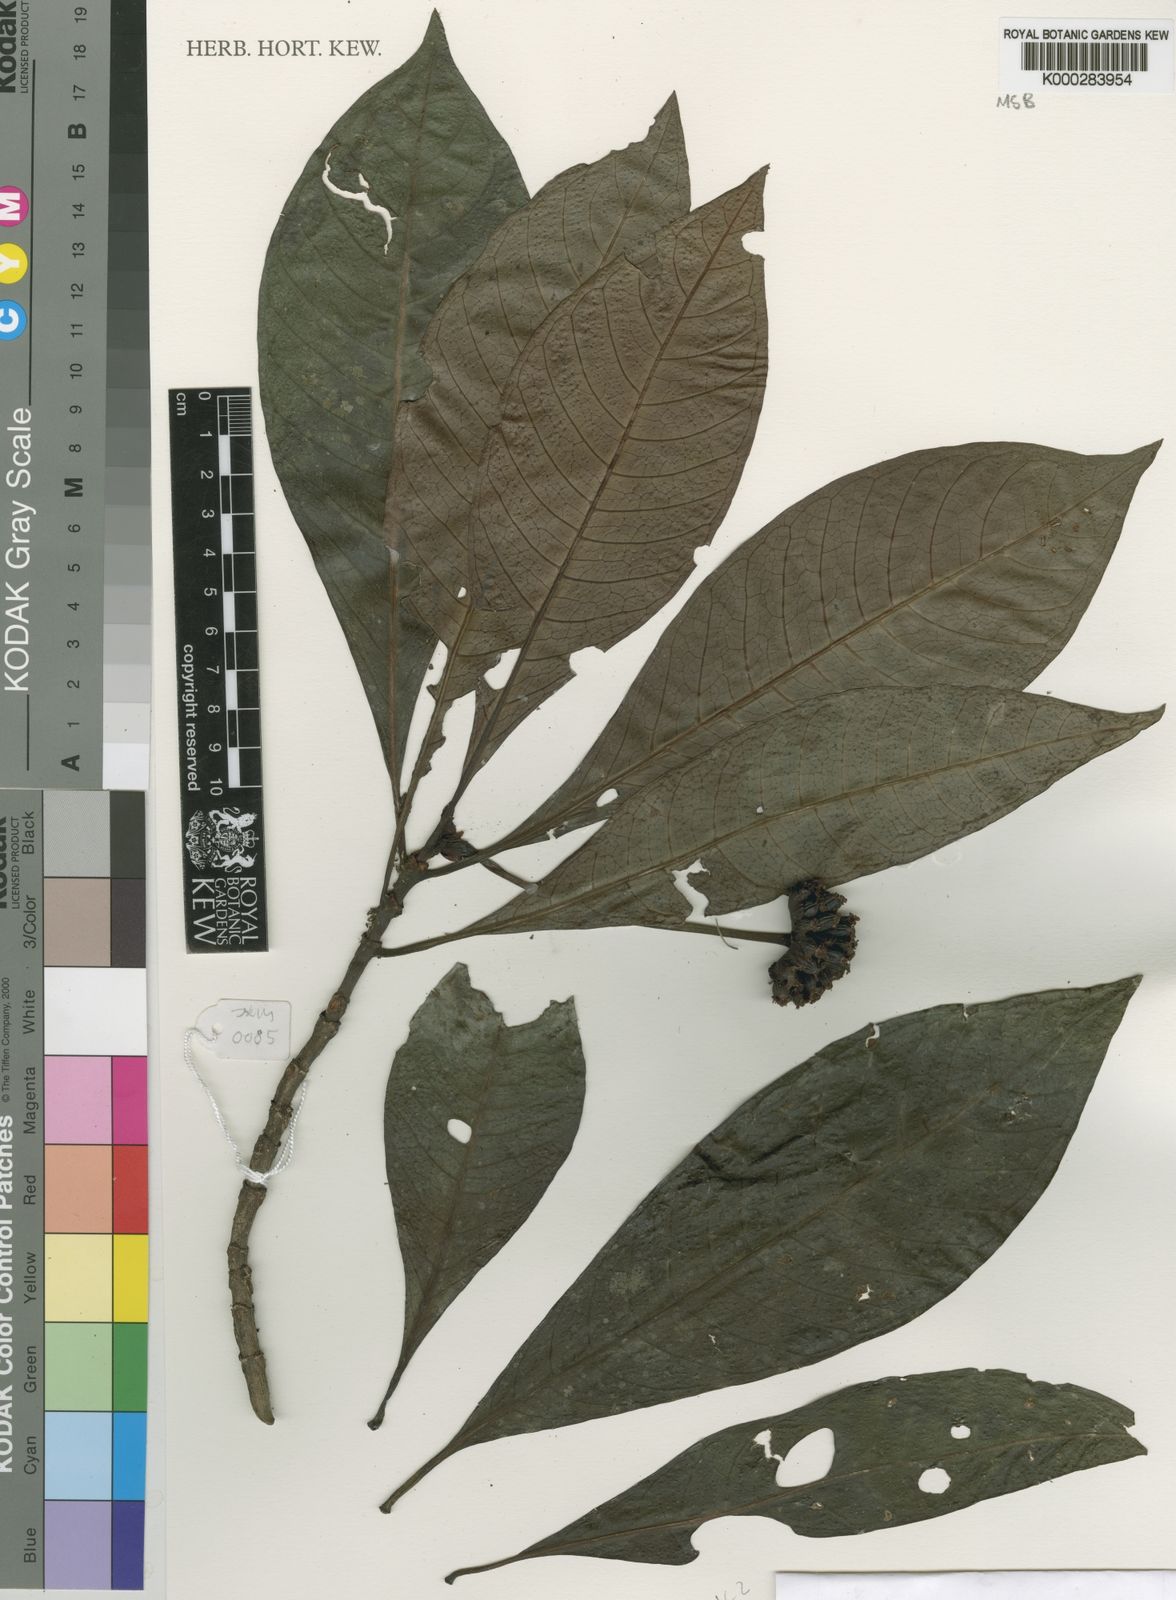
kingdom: Plantae
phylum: Tracheophyta
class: Magnoliopsida
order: Gentianales
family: Rubiaceae
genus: Psychotria
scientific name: Psychotria
